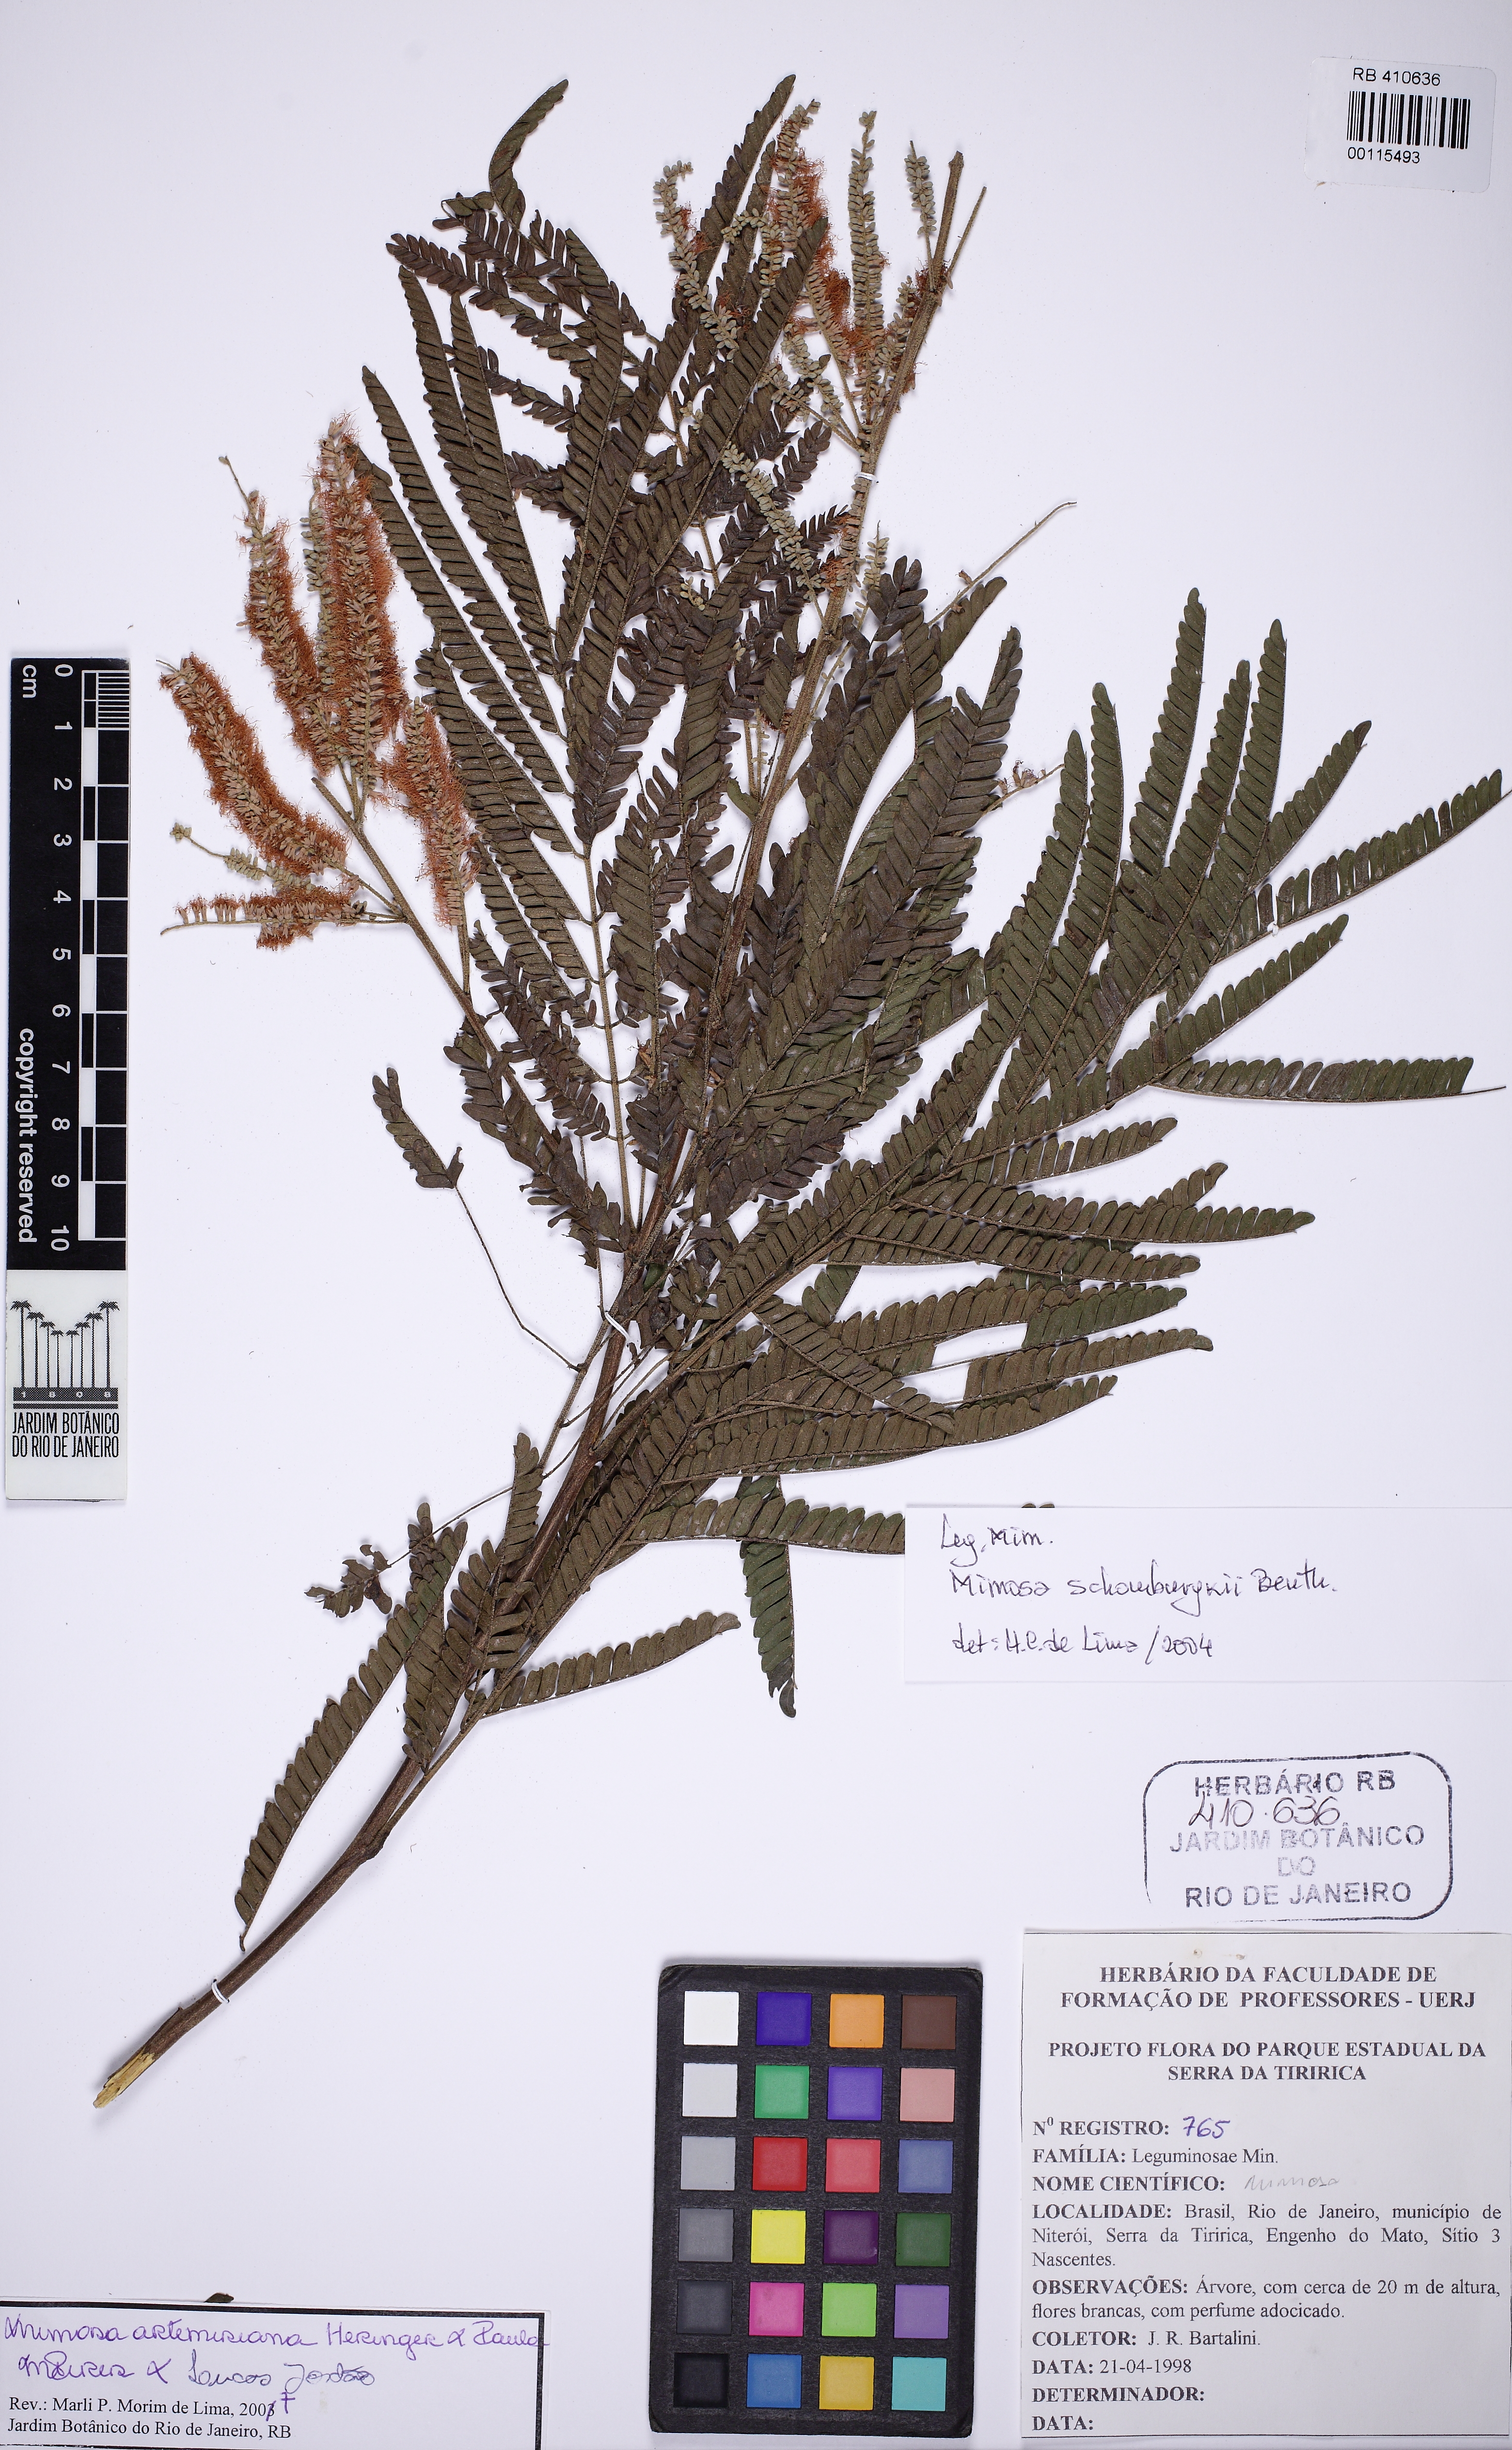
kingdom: Plantae
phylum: Tracheophyta
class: Magnoliopsida
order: Fabales
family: Fabaceae
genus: Mimosa
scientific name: Mimosa schomburgkii
